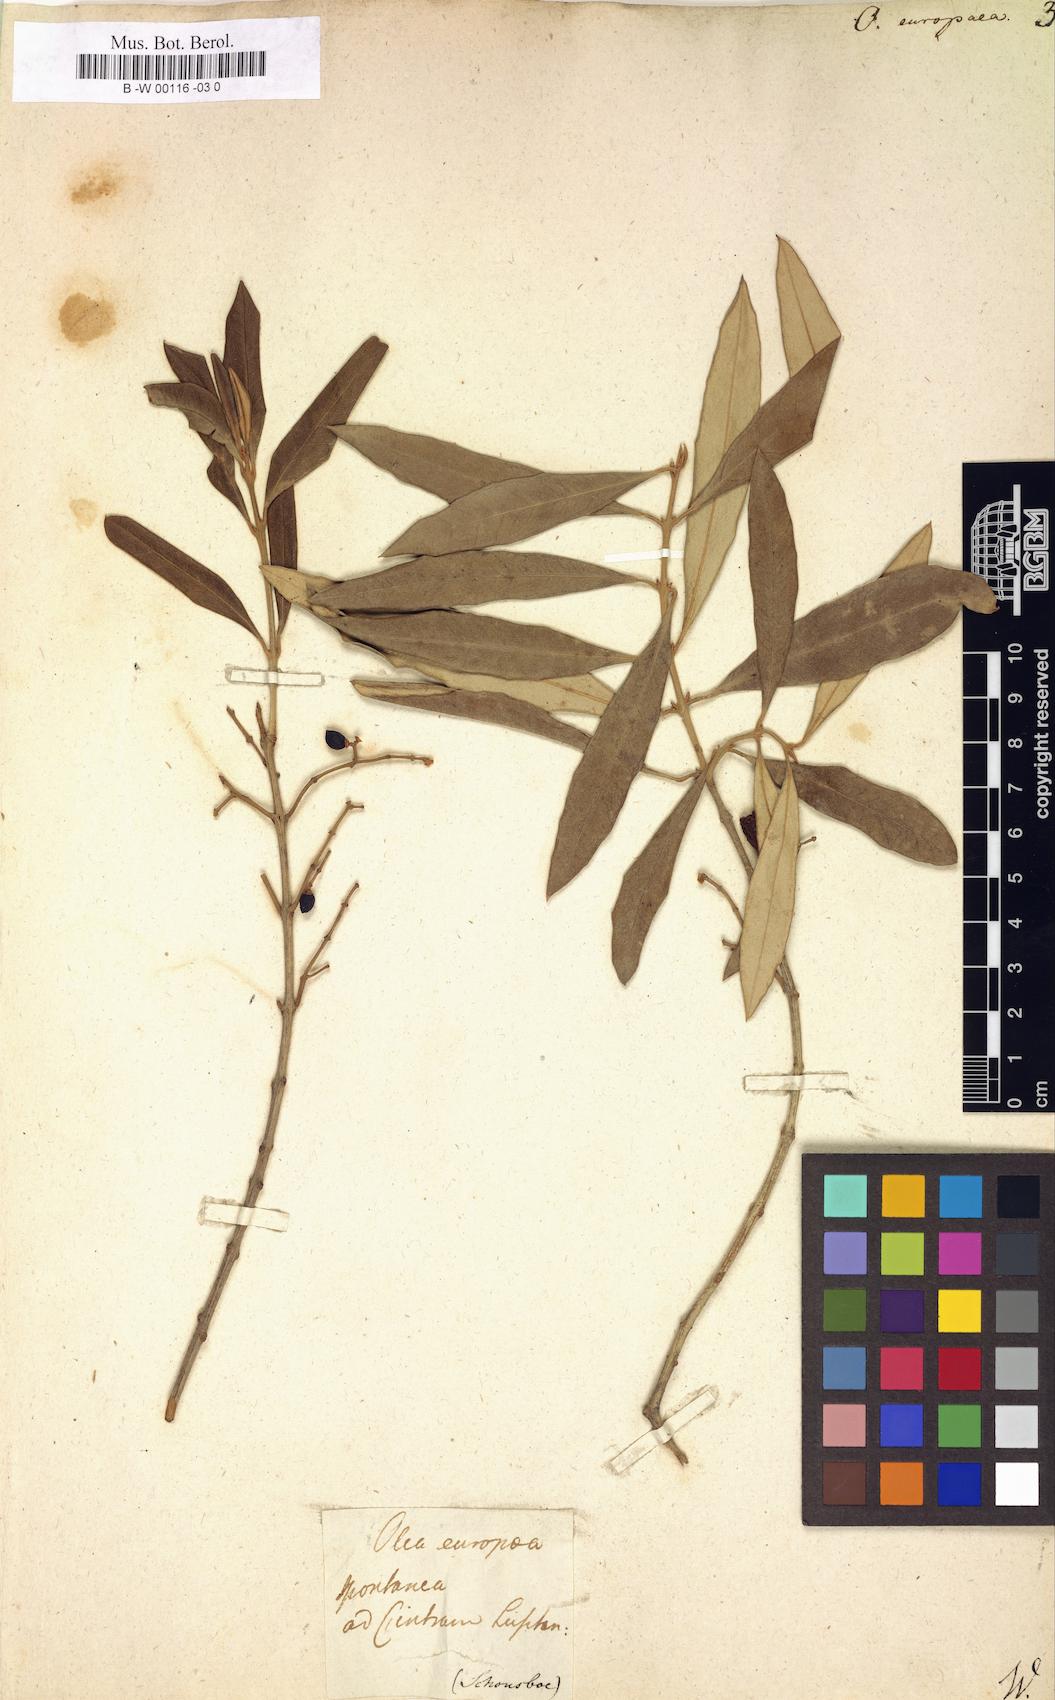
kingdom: Plantae
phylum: Tracheophyta
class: Magnoliopsida
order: Lamiales
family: Oleaceae
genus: Olea
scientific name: Olea europaea
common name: Olive
